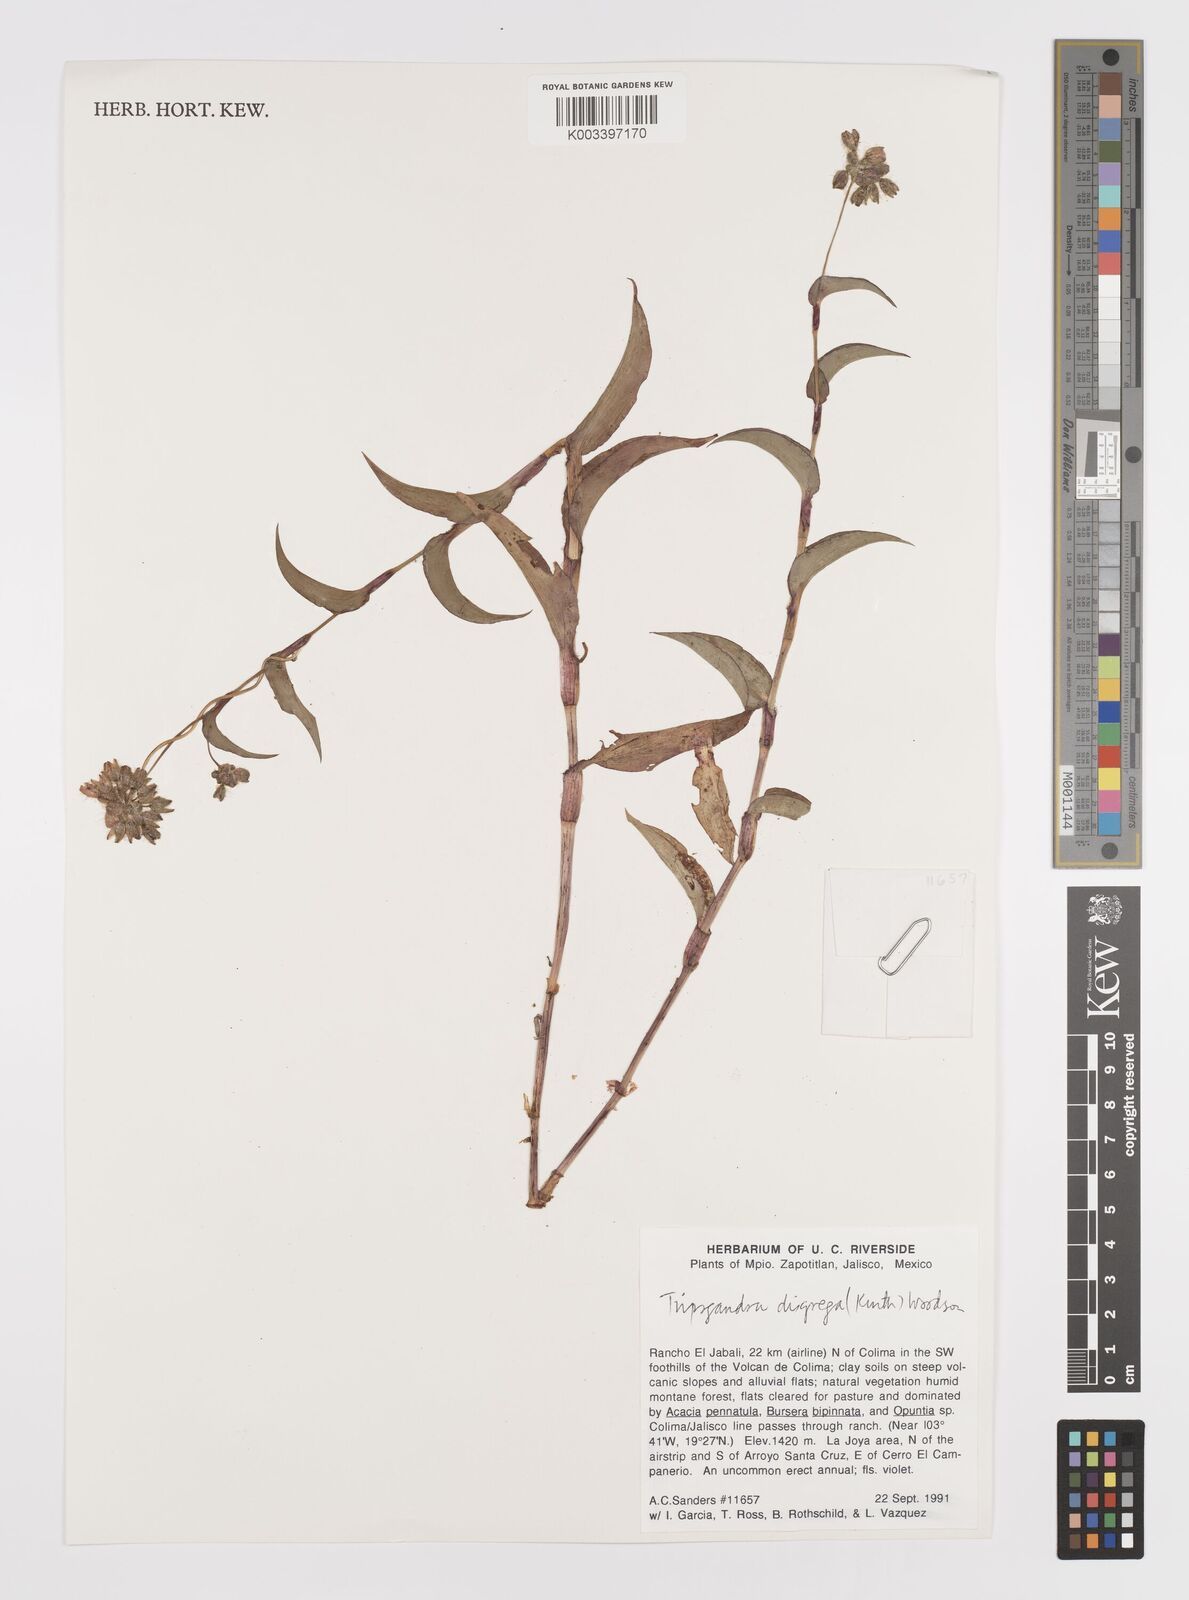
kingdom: Plantae
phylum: Tracheophyta
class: Liliopsida
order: Commelinales
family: Commelinaceae
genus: Callisia
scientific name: Callisia disgrega
